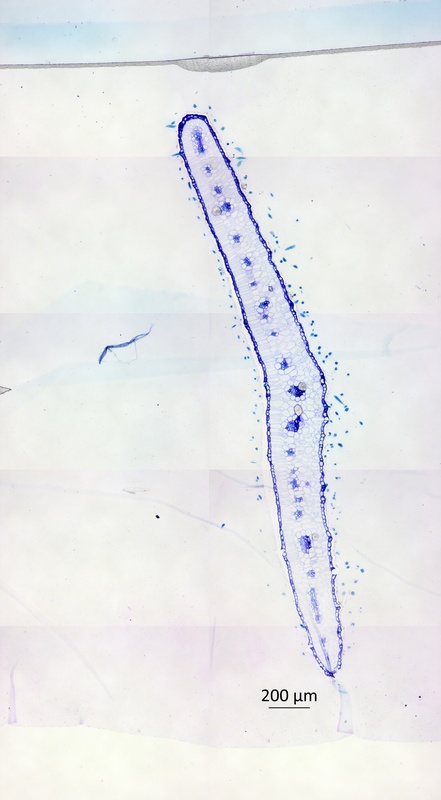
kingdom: Plantae
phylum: Tracheophyta
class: Magnoliopsida
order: Zygophyllales
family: Zygophyllaceae
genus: Kelleronia
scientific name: Kelleronia gillettiae
